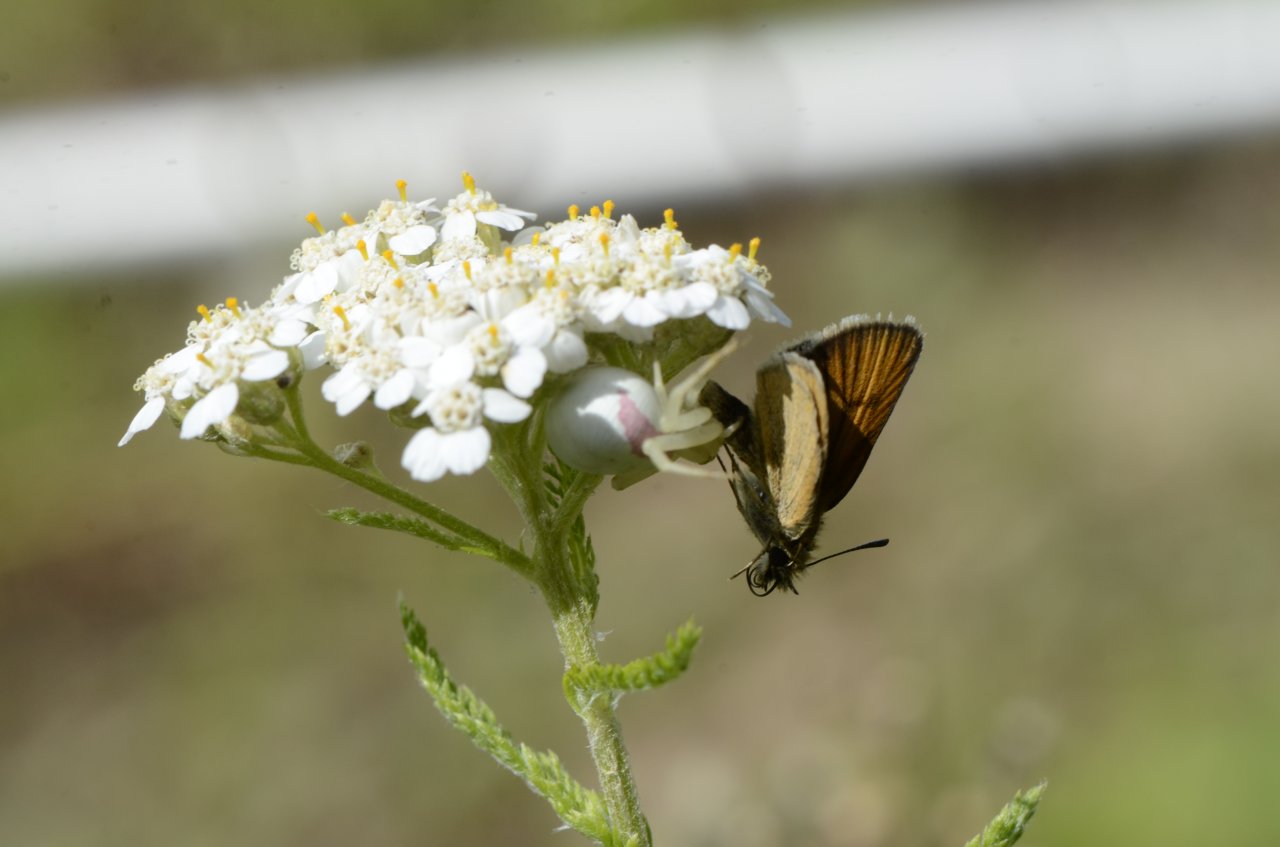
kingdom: Animalia
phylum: Arthropoda
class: Insecta
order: Lepidoptera
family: Hesperiidae
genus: Thymelicus
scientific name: Thymelicus lineola
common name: European Skipper
